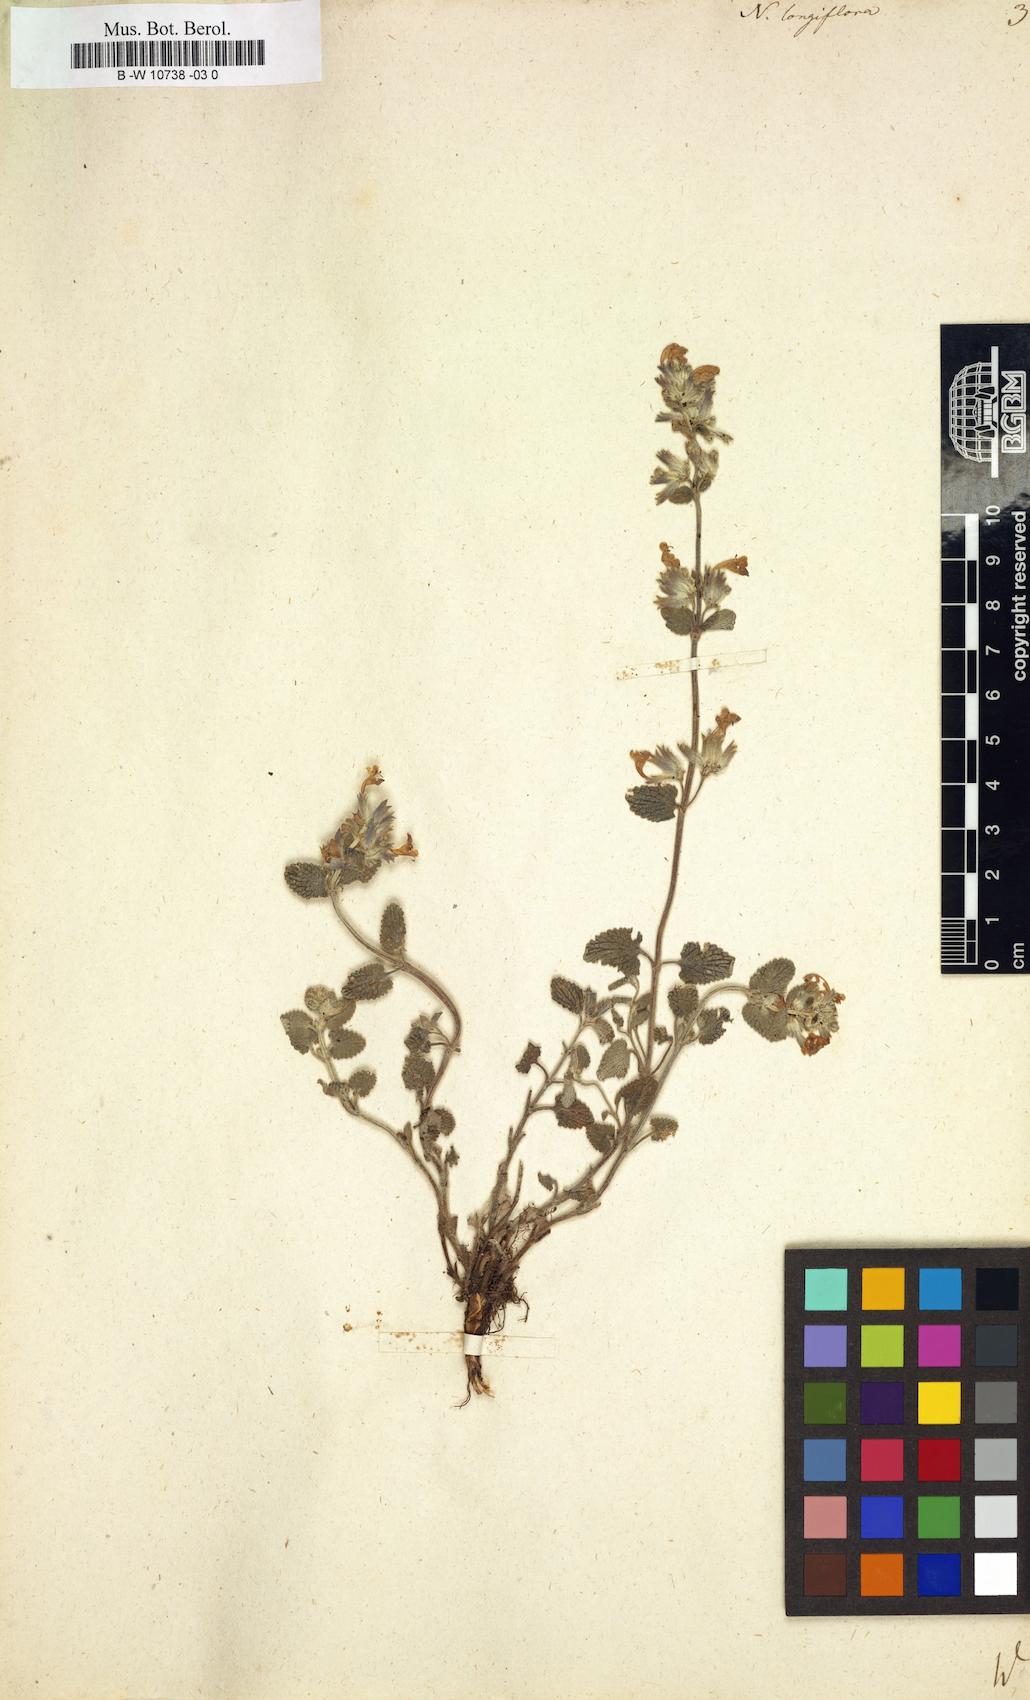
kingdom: Plantae
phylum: Tracheophyta
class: Magnoliopsida
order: Lamiales
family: Lamiaceae
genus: Nepeta
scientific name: Nepeta longiflora
